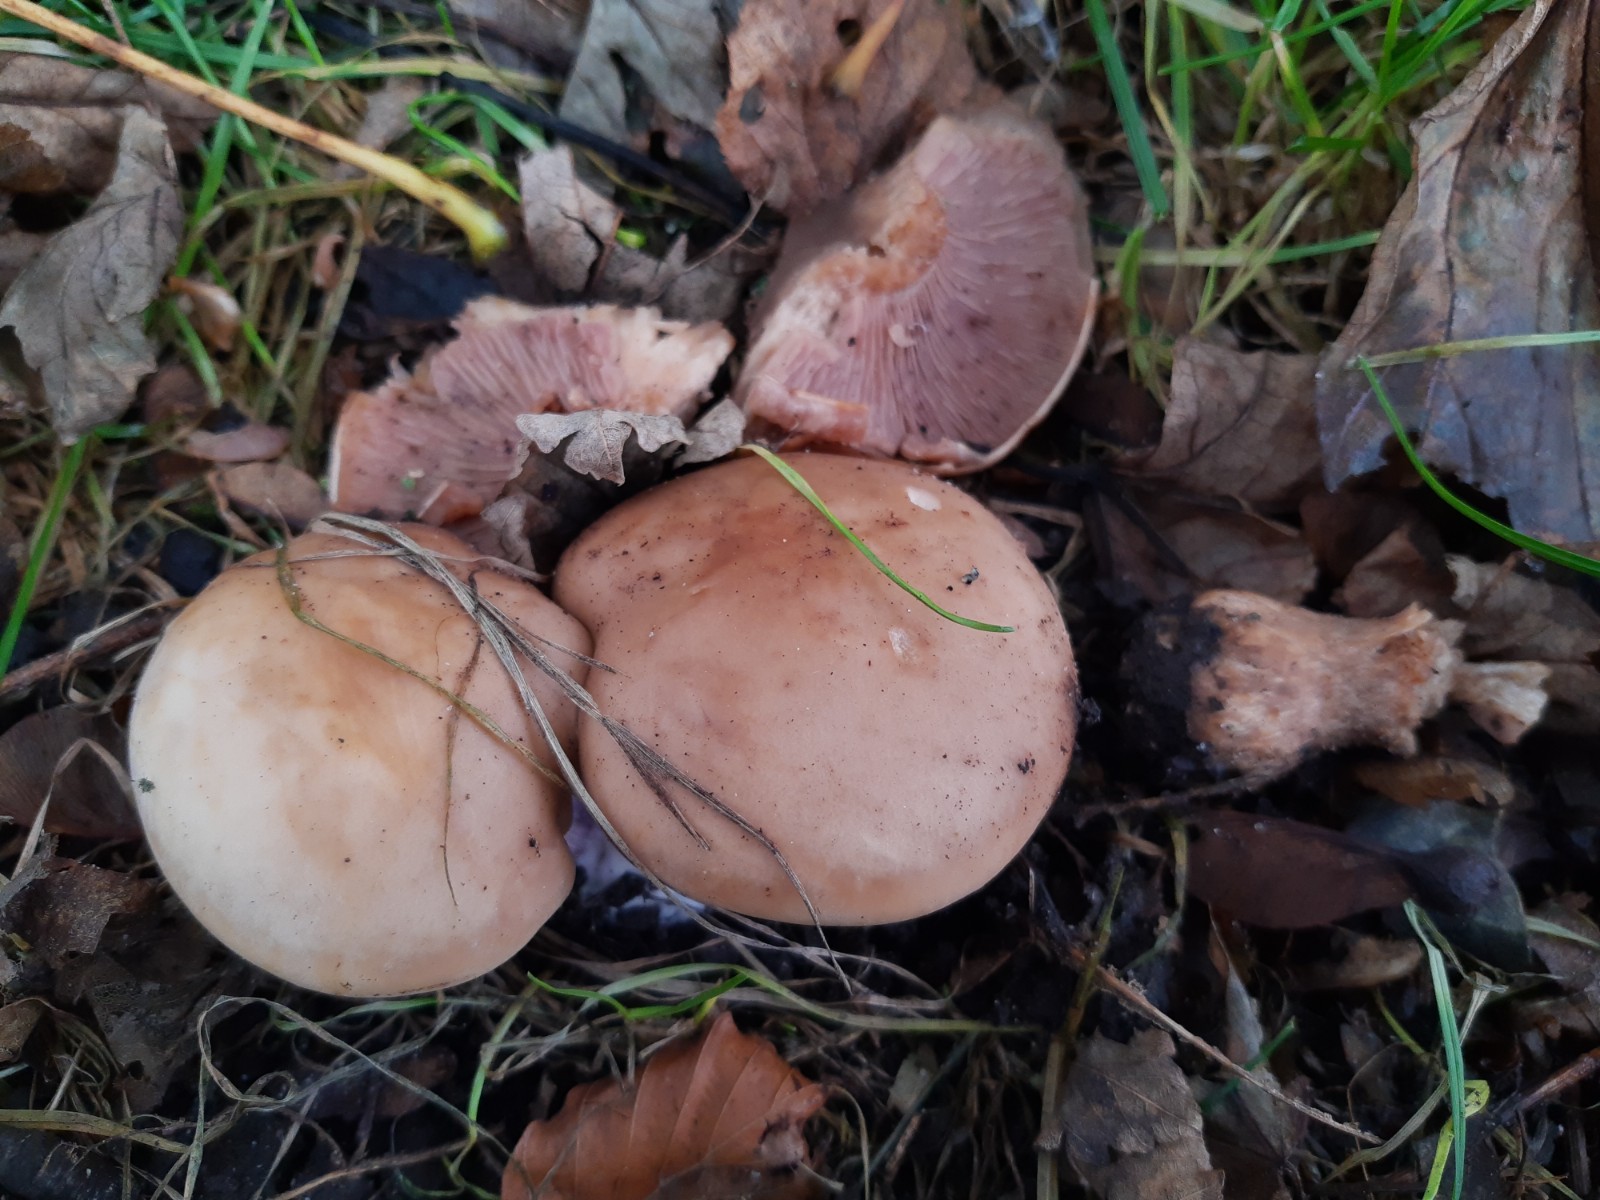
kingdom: Fungi
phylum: Basidiomycota
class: Agaricomycetes
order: Agaricales
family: Tricholomataceae
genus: Lepista
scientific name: Lepista personata
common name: bleg hekseringshat
